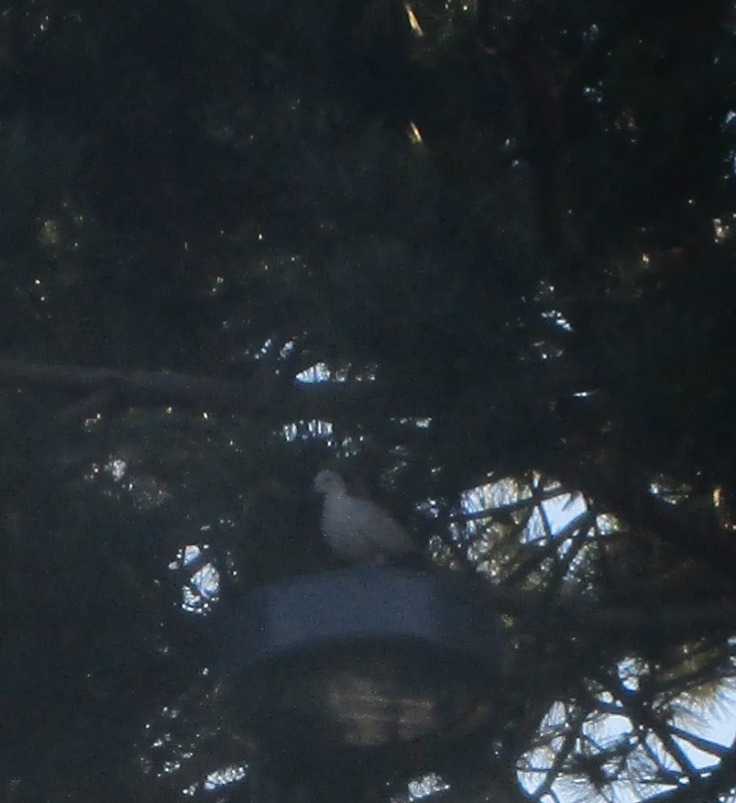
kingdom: Animalia
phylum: Chordata
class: Aves
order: Columbiformes
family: Columbidae
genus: Streptopelia
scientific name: Streptopelia decaocto
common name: Tyrkerdue
